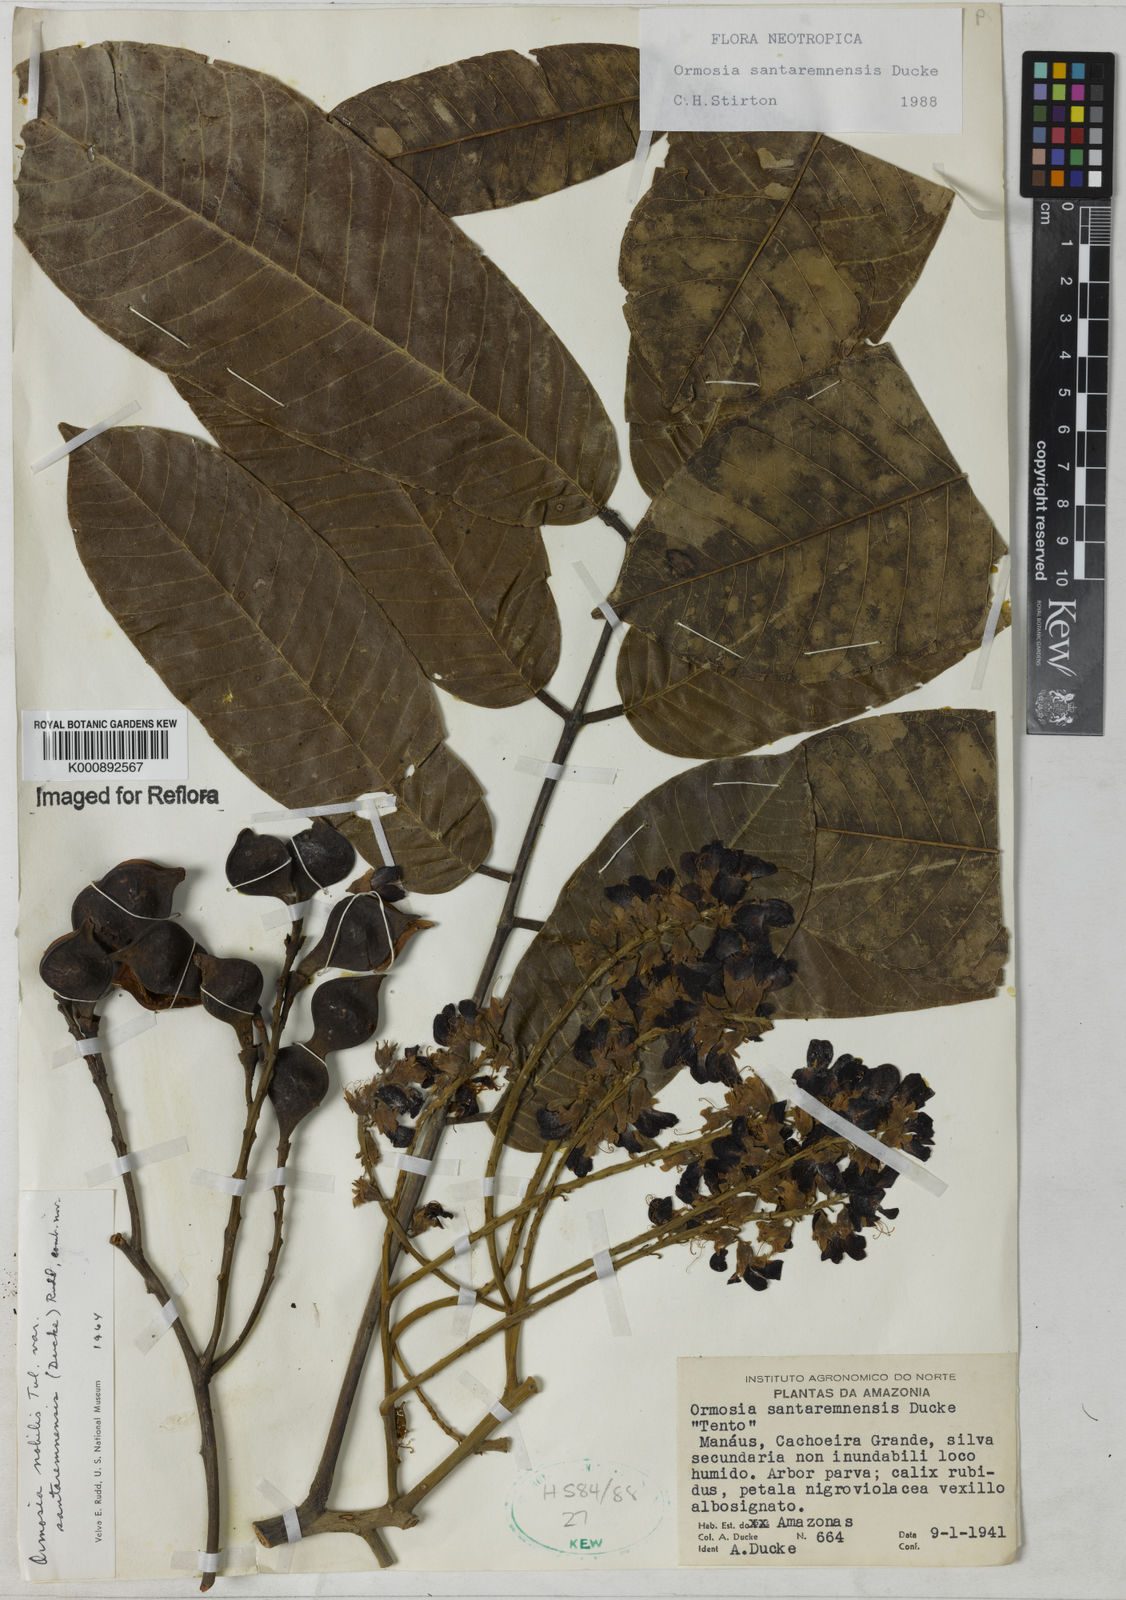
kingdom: Plantae
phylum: Tracheophyta
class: Magnoliopsida
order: Fabales
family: Fabaceae
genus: Ormosia
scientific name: Ormosia santaremnensis
